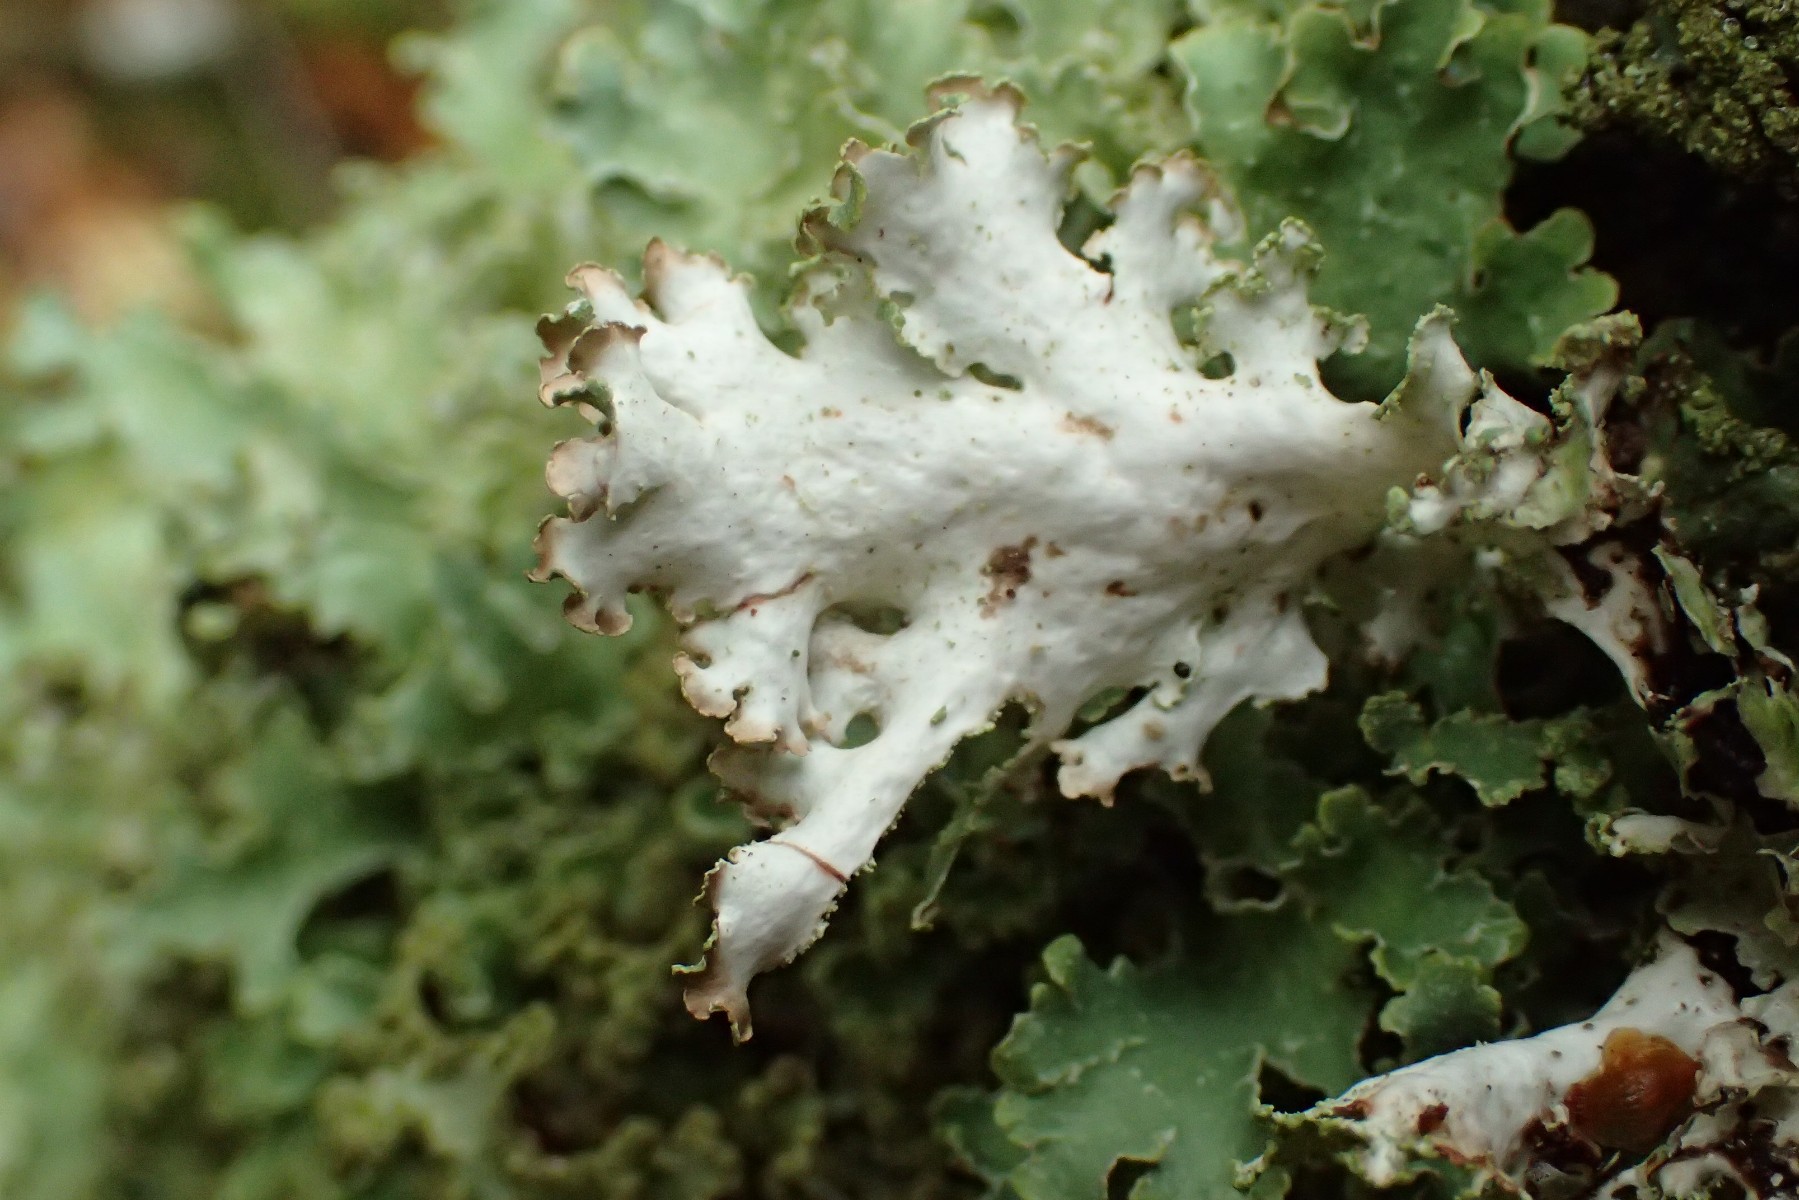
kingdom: Fungi
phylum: Ascomycota
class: Lecanoromycetes
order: Lecanorales
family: Parmeliaceae
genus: Platismatia
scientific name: Platismatia glauca
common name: blågrå papirlav
